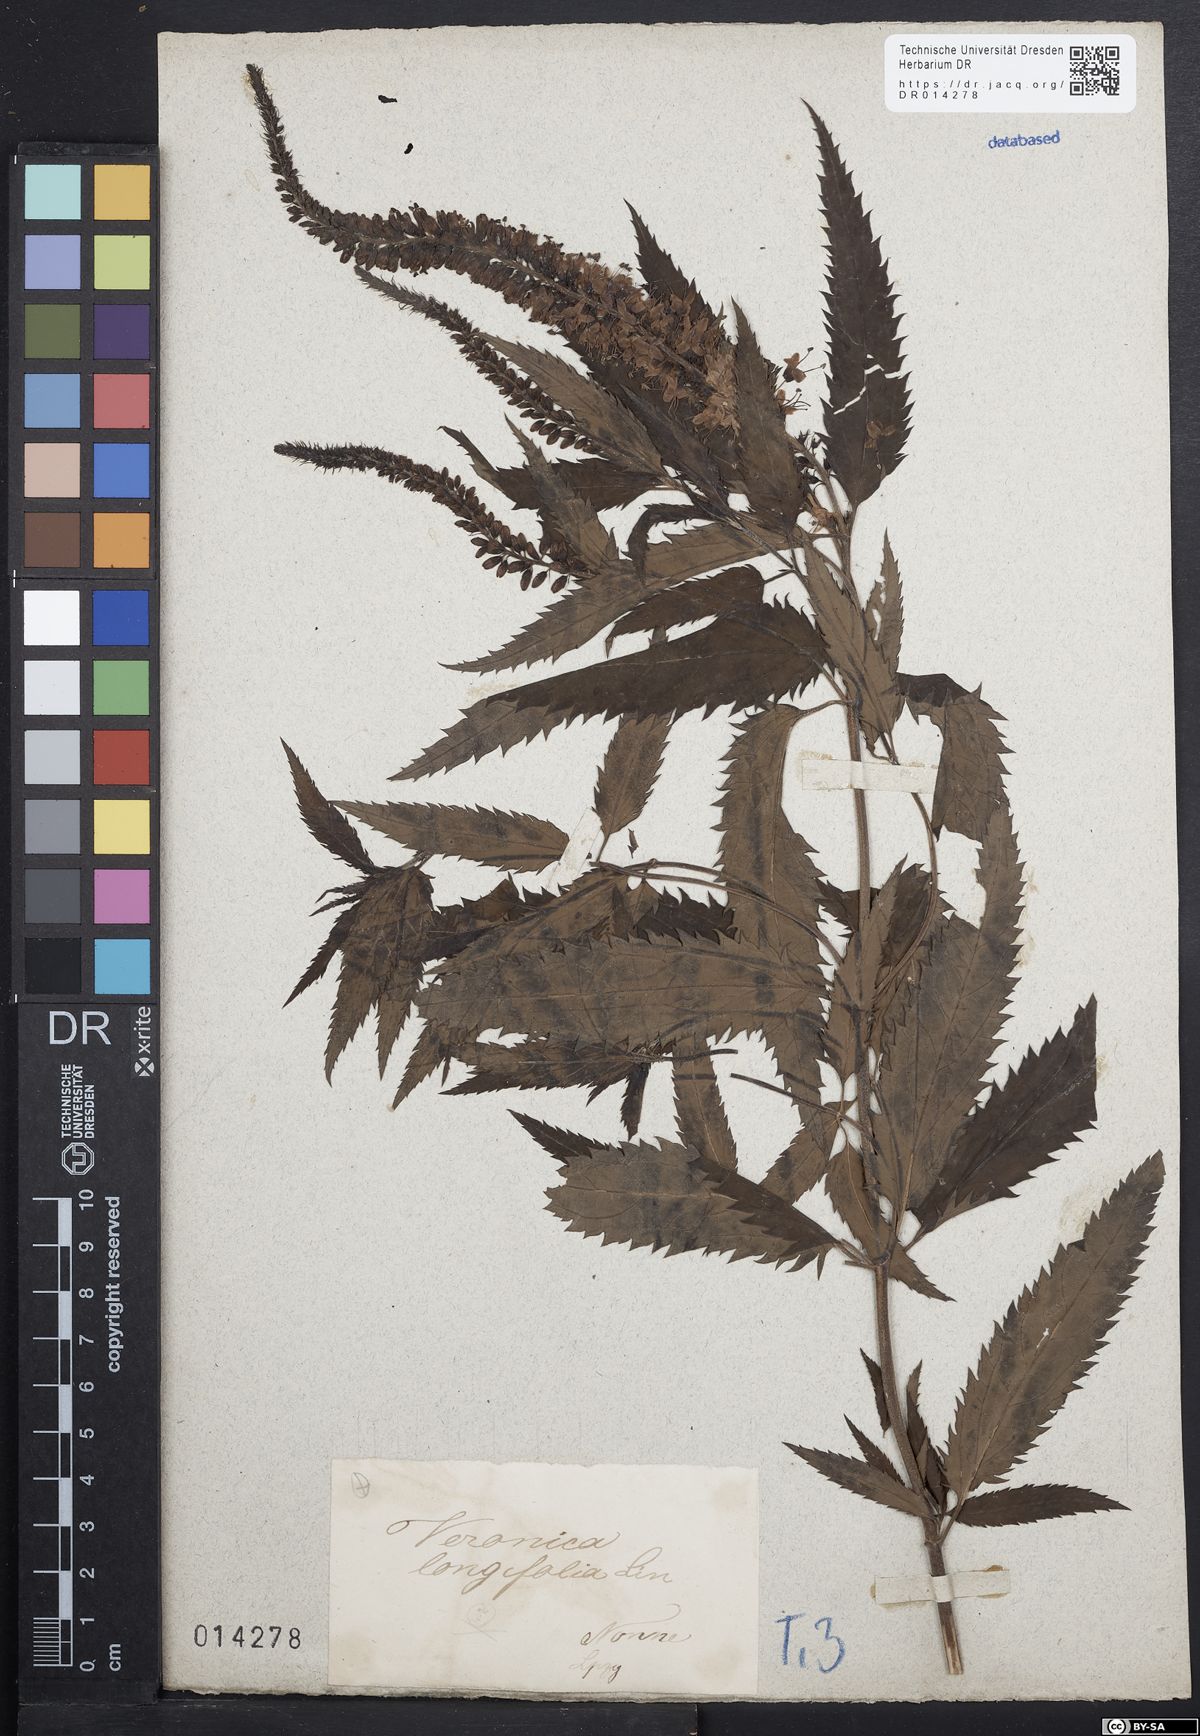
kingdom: Plantae
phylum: Tracheophyta
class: Magnoliopsida
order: Lamiales
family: Plantaginaceae
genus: Veronica
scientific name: Veronica longifolia
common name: Garden speedwell
